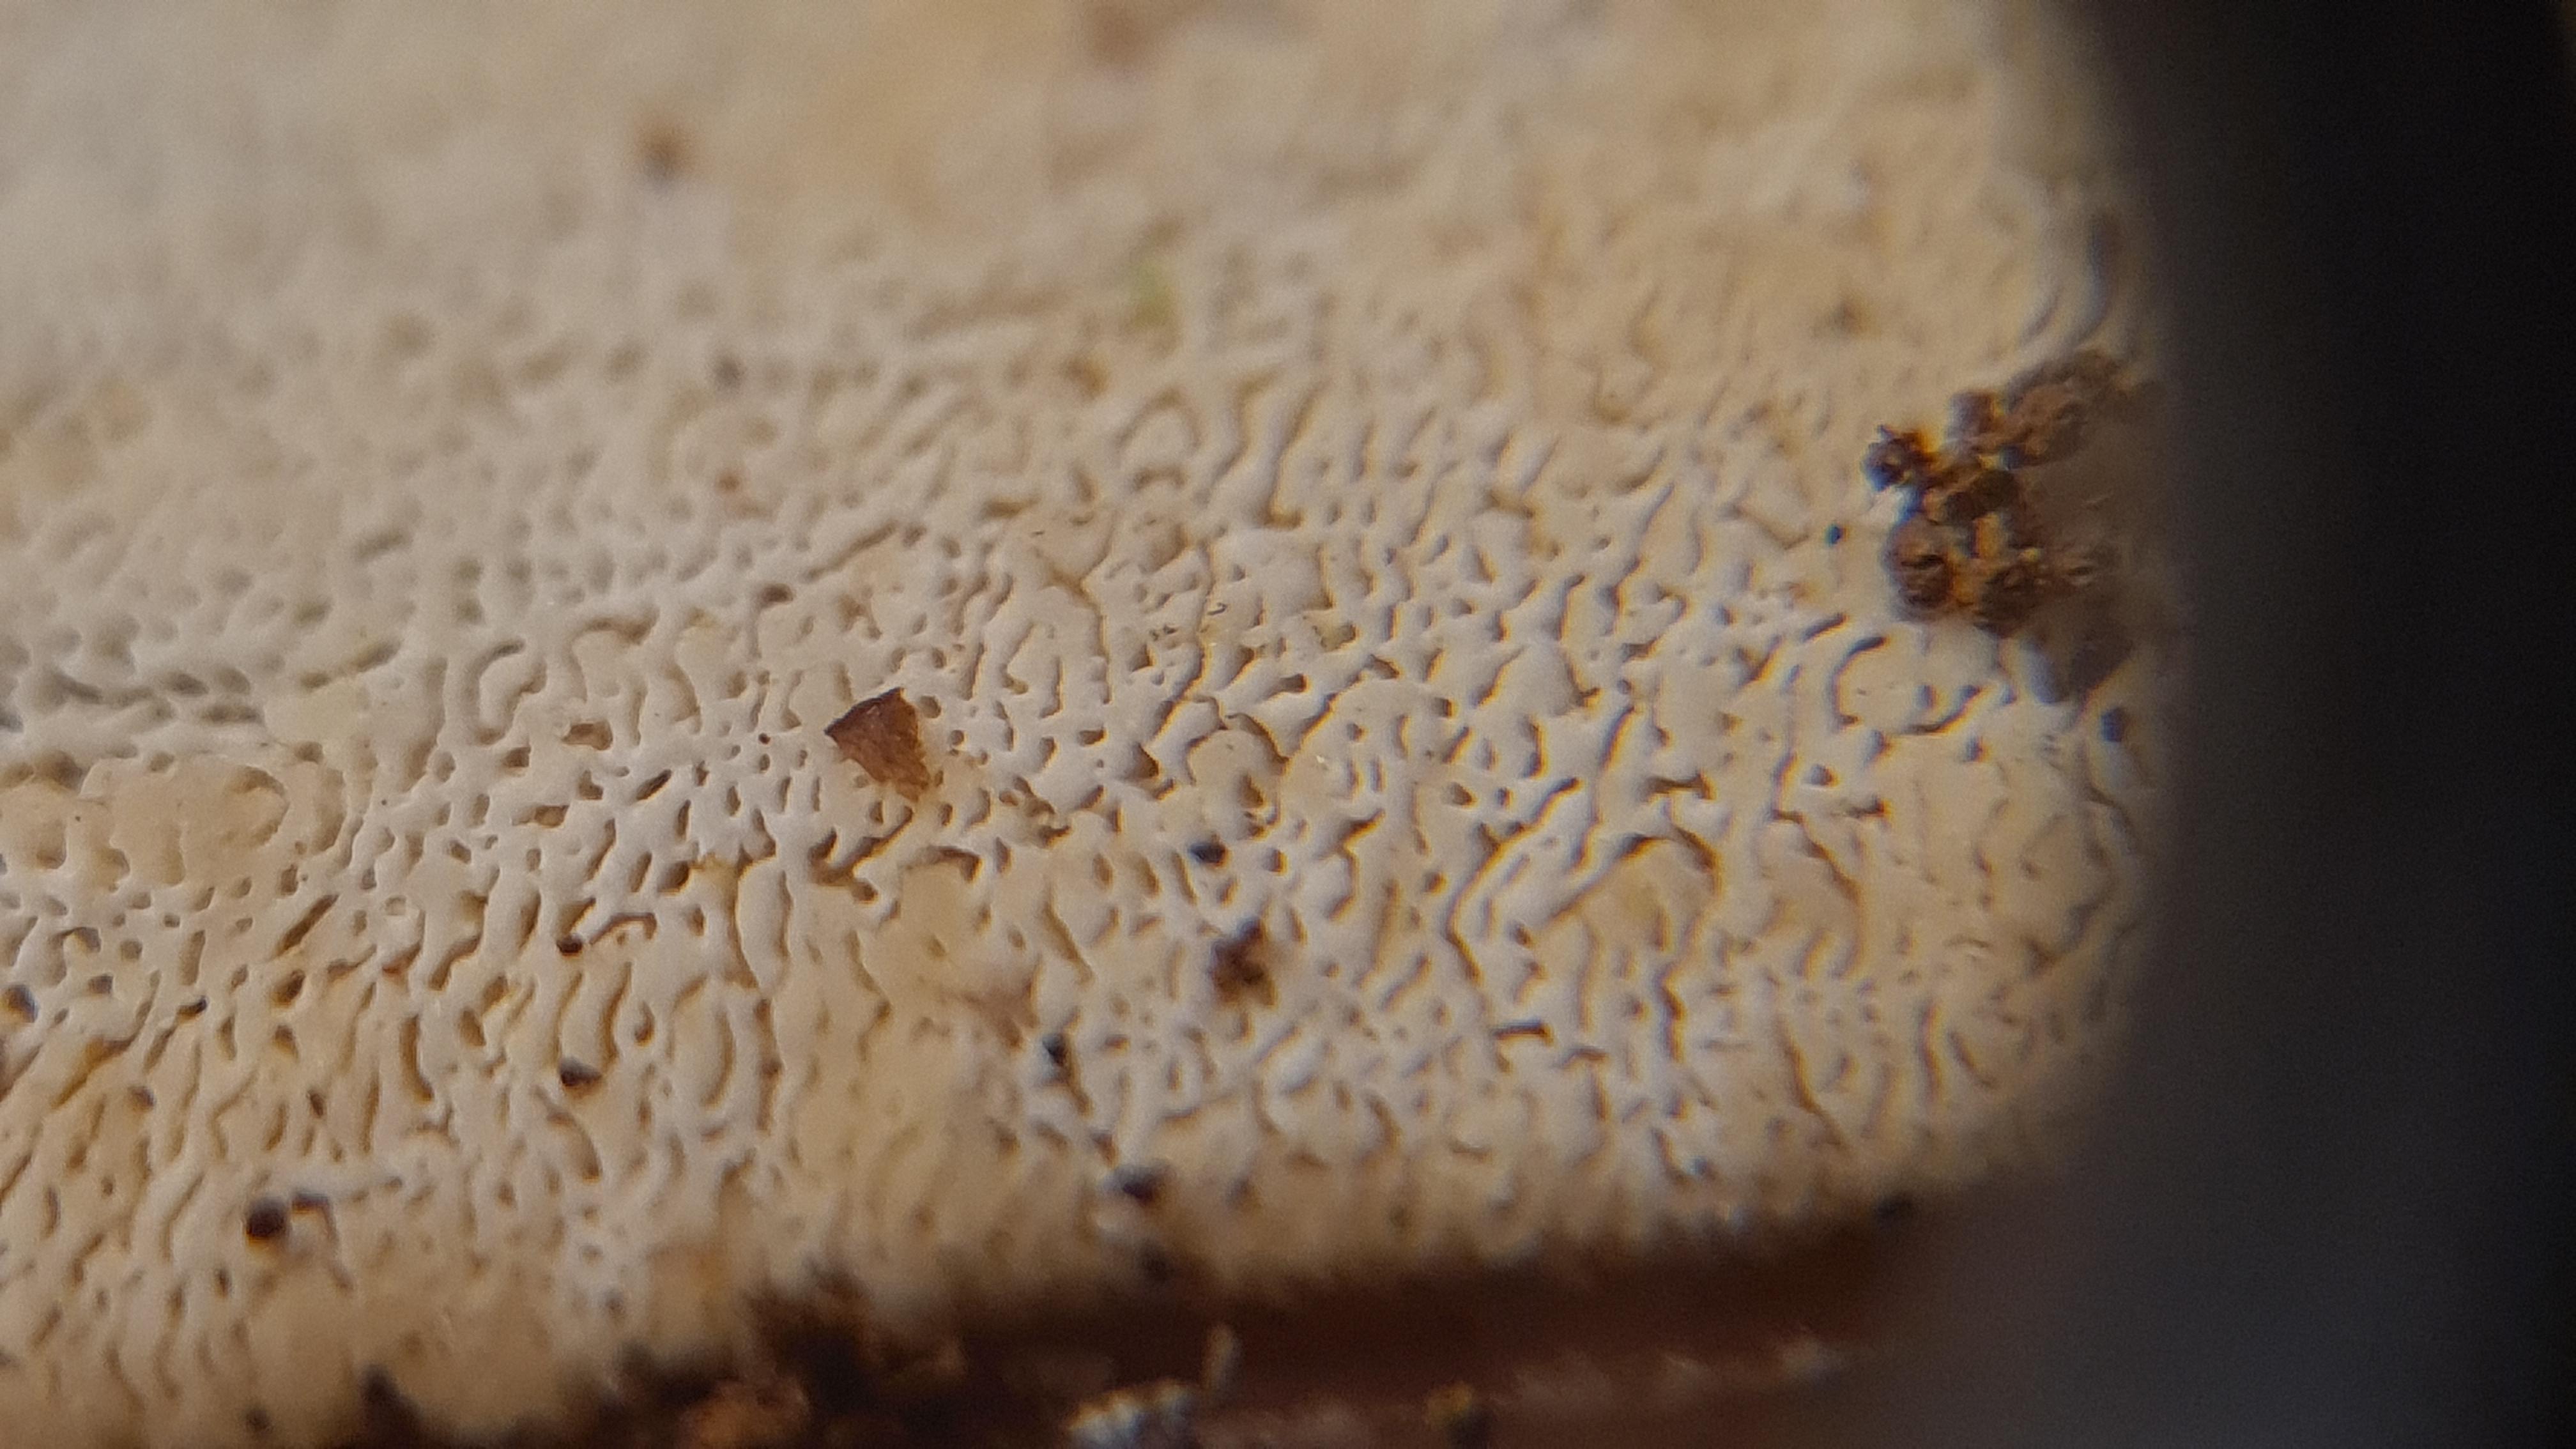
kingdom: Fungi
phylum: Basidiomycota
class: Agaricomycetes
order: Hymenochaetales
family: Schizoporaceae
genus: Xylodon
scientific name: Xylodon subtropicus
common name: labyrint-tandsvamp
